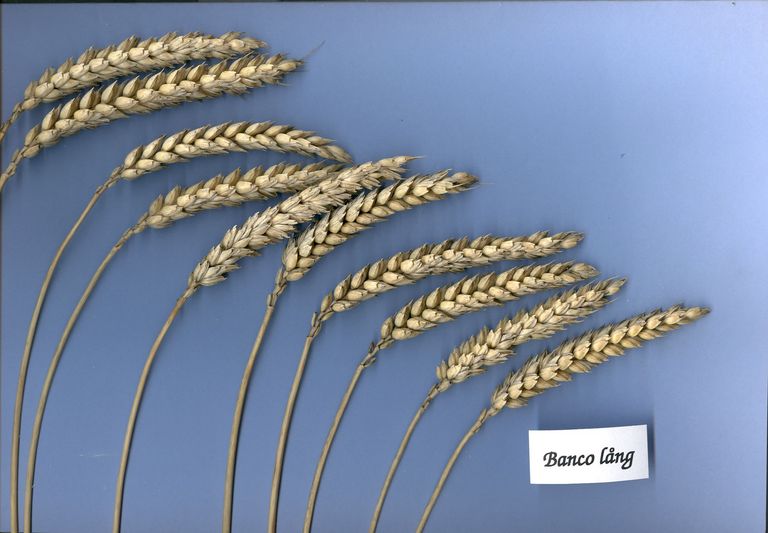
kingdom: Plantae
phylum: Tracheophyta
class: Liliopsida
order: Poales
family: Poaceae
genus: Triticum
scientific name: Triticum aestivum
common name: Common wheat
